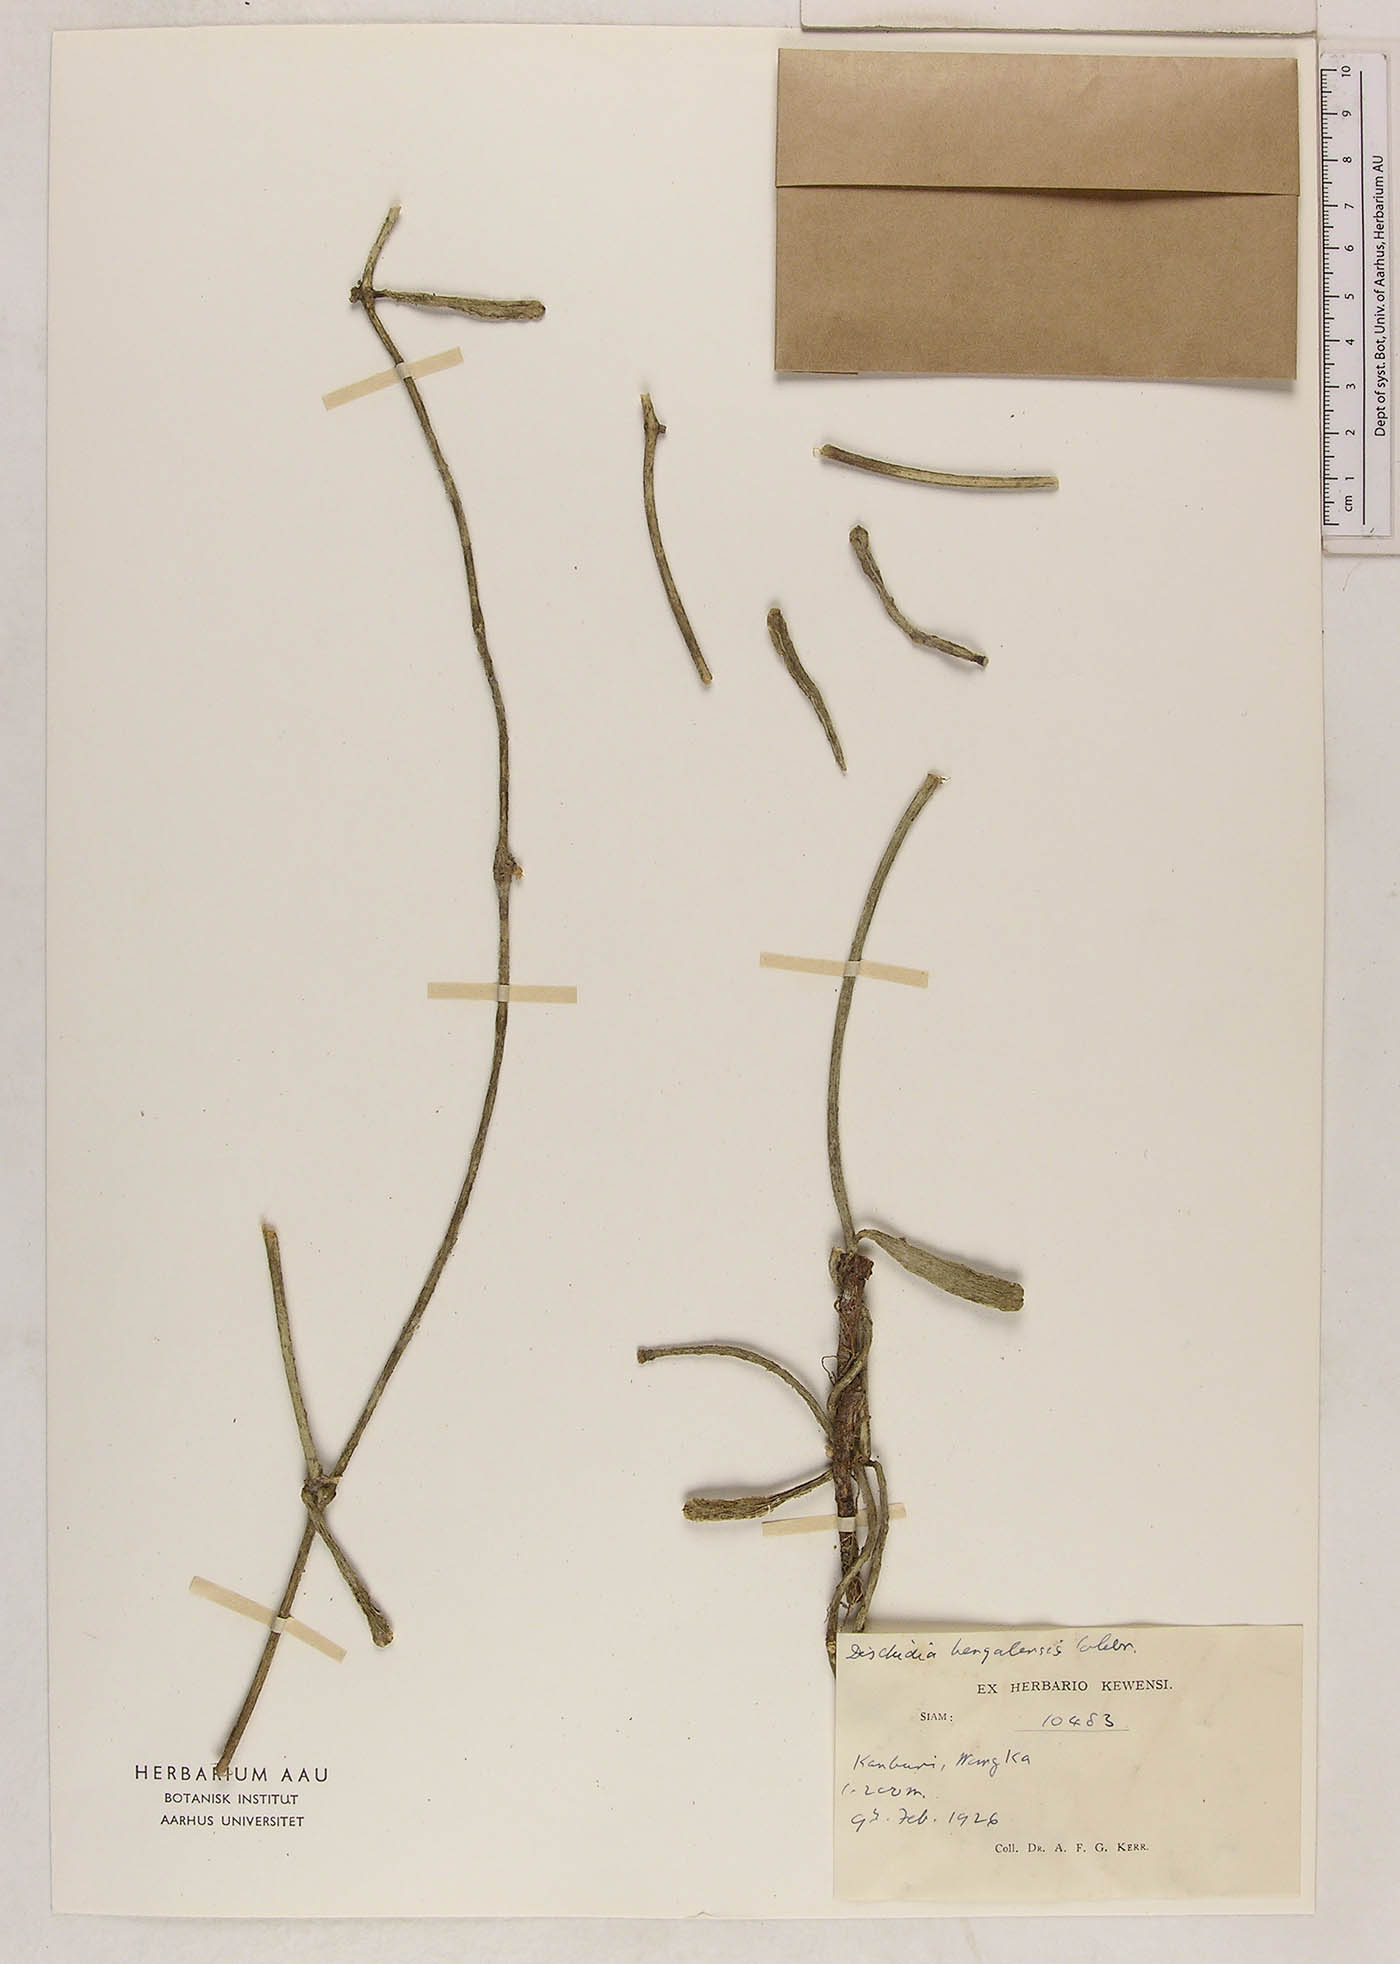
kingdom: Plantae
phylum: Tracheophyta
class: Magnoliopsida
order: Gentianales
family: Apocynaceae
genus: Dischidia
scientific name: Dischidia bengalensis
